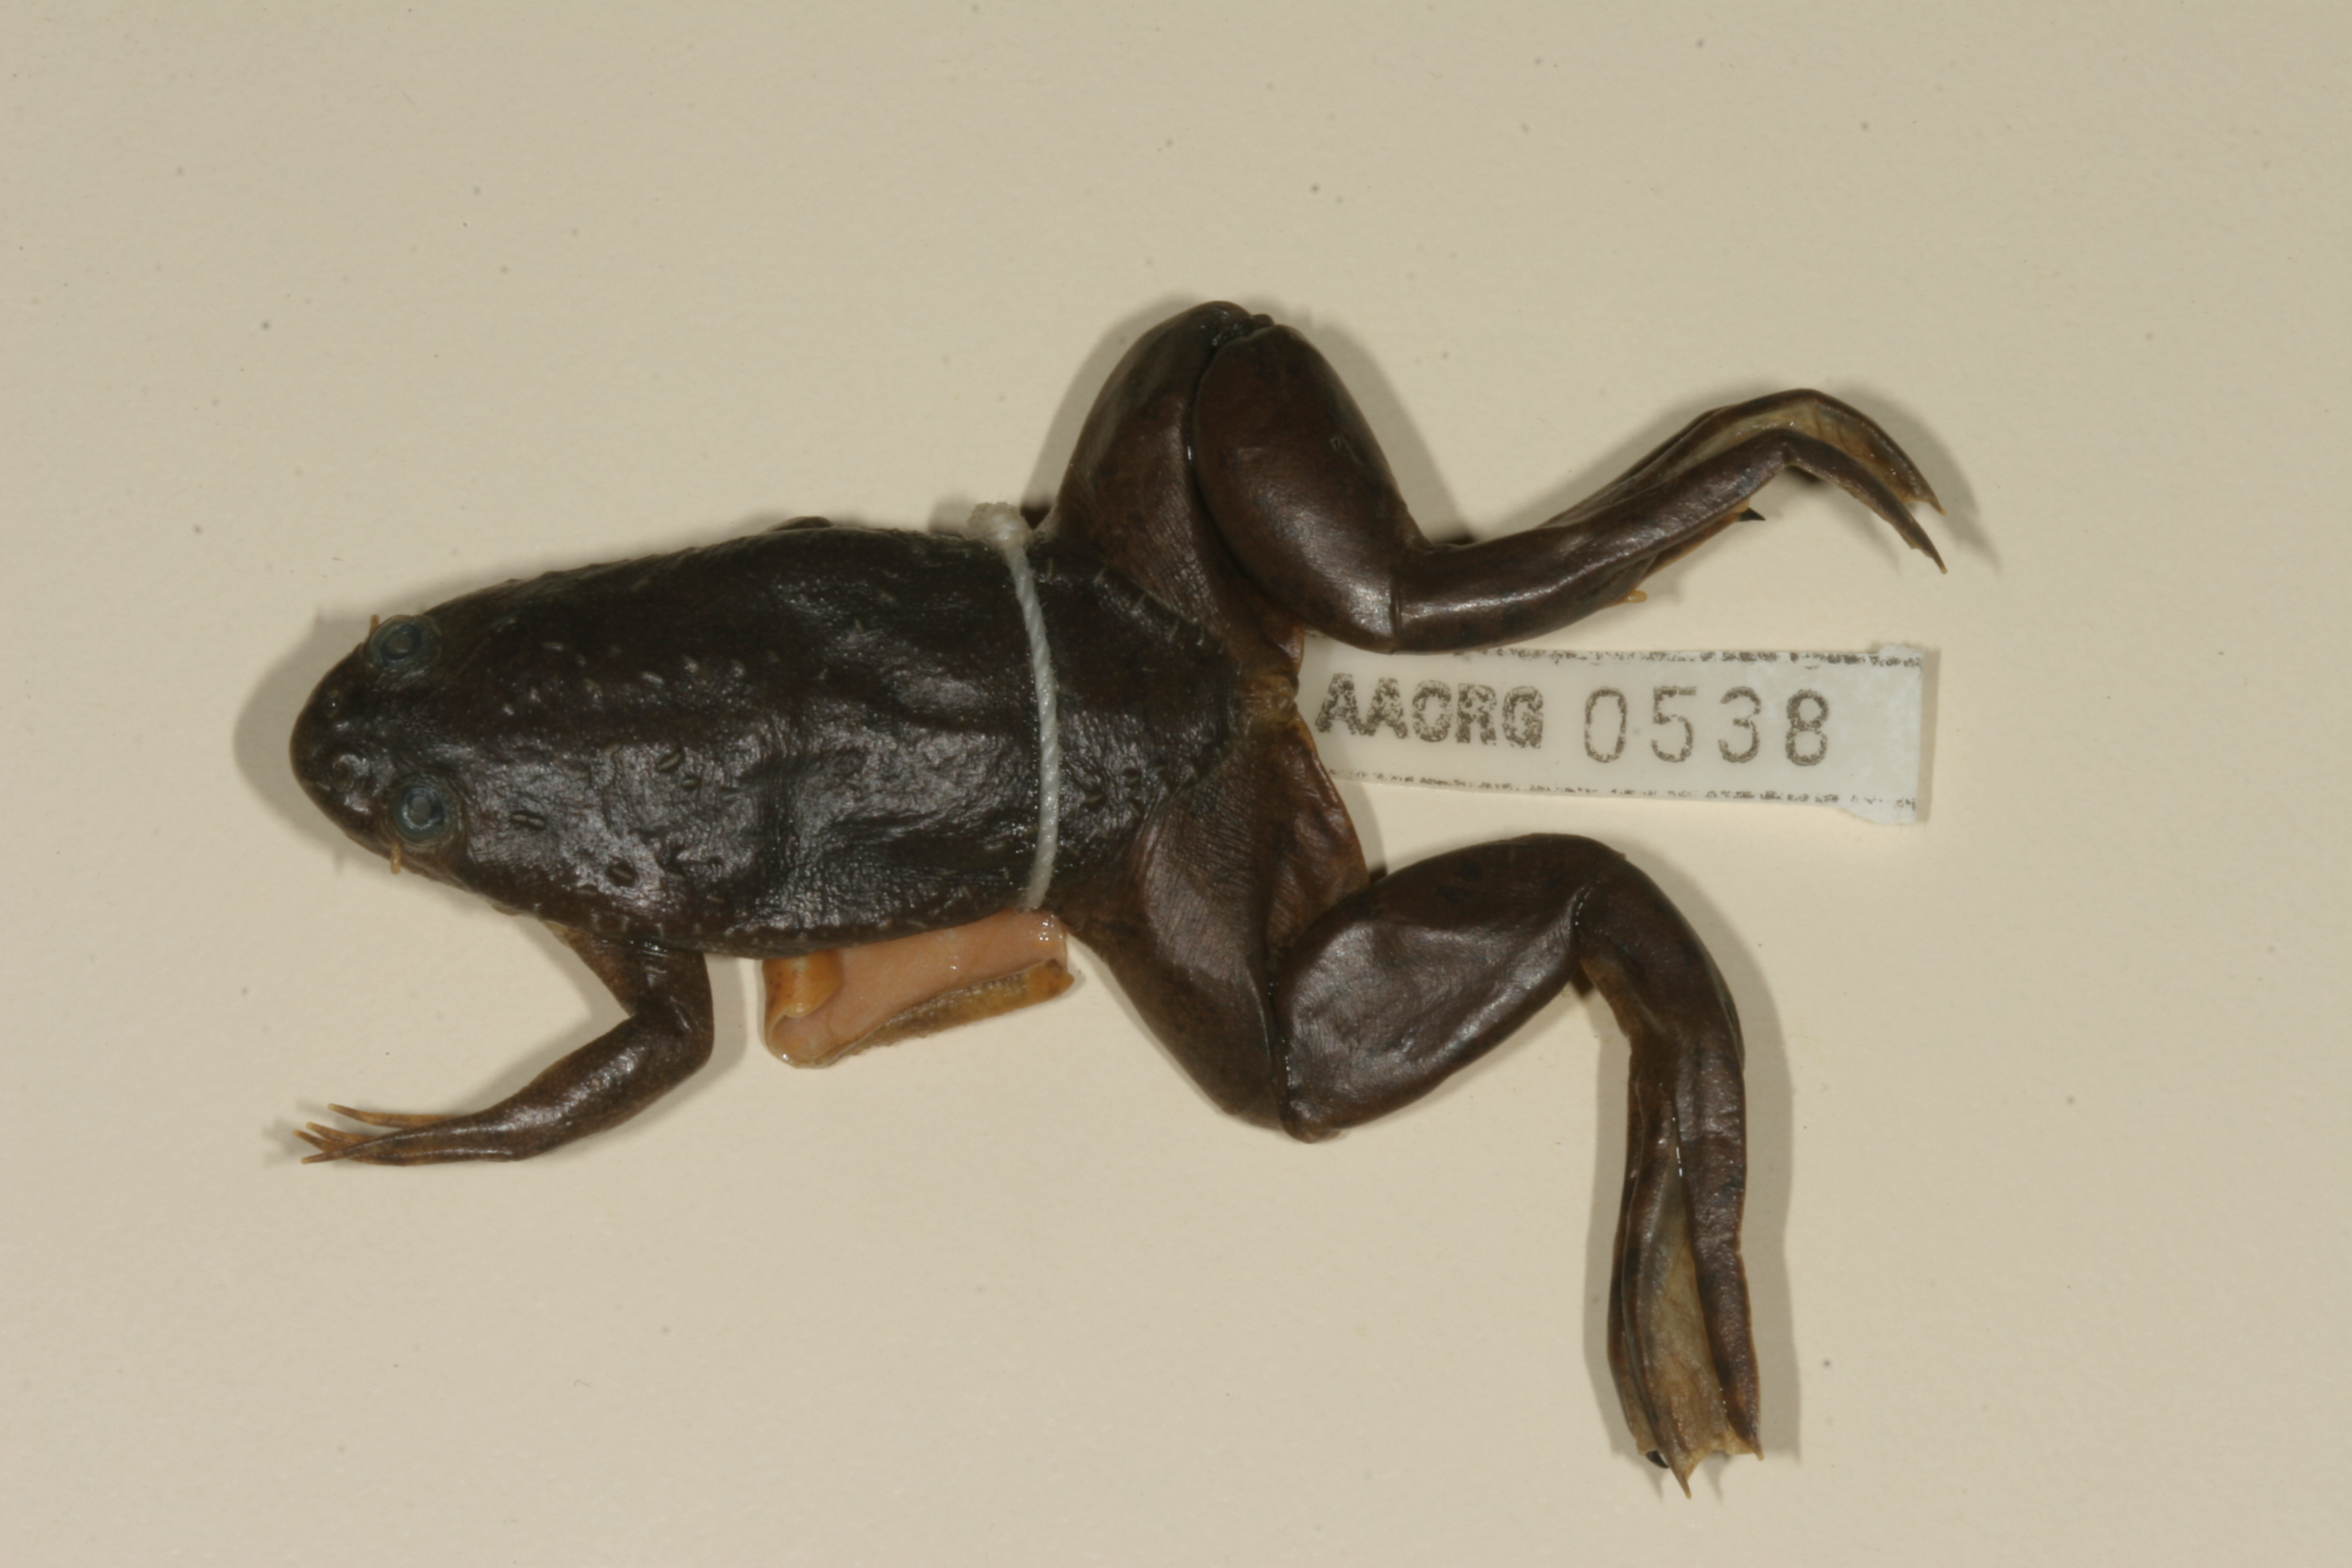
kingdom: Animalia
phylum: Chordata
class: Amphibia
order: Anura
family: Pipidae
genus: Xenopus
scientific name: Xenopus muelleri
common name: Muller's clawed frog
